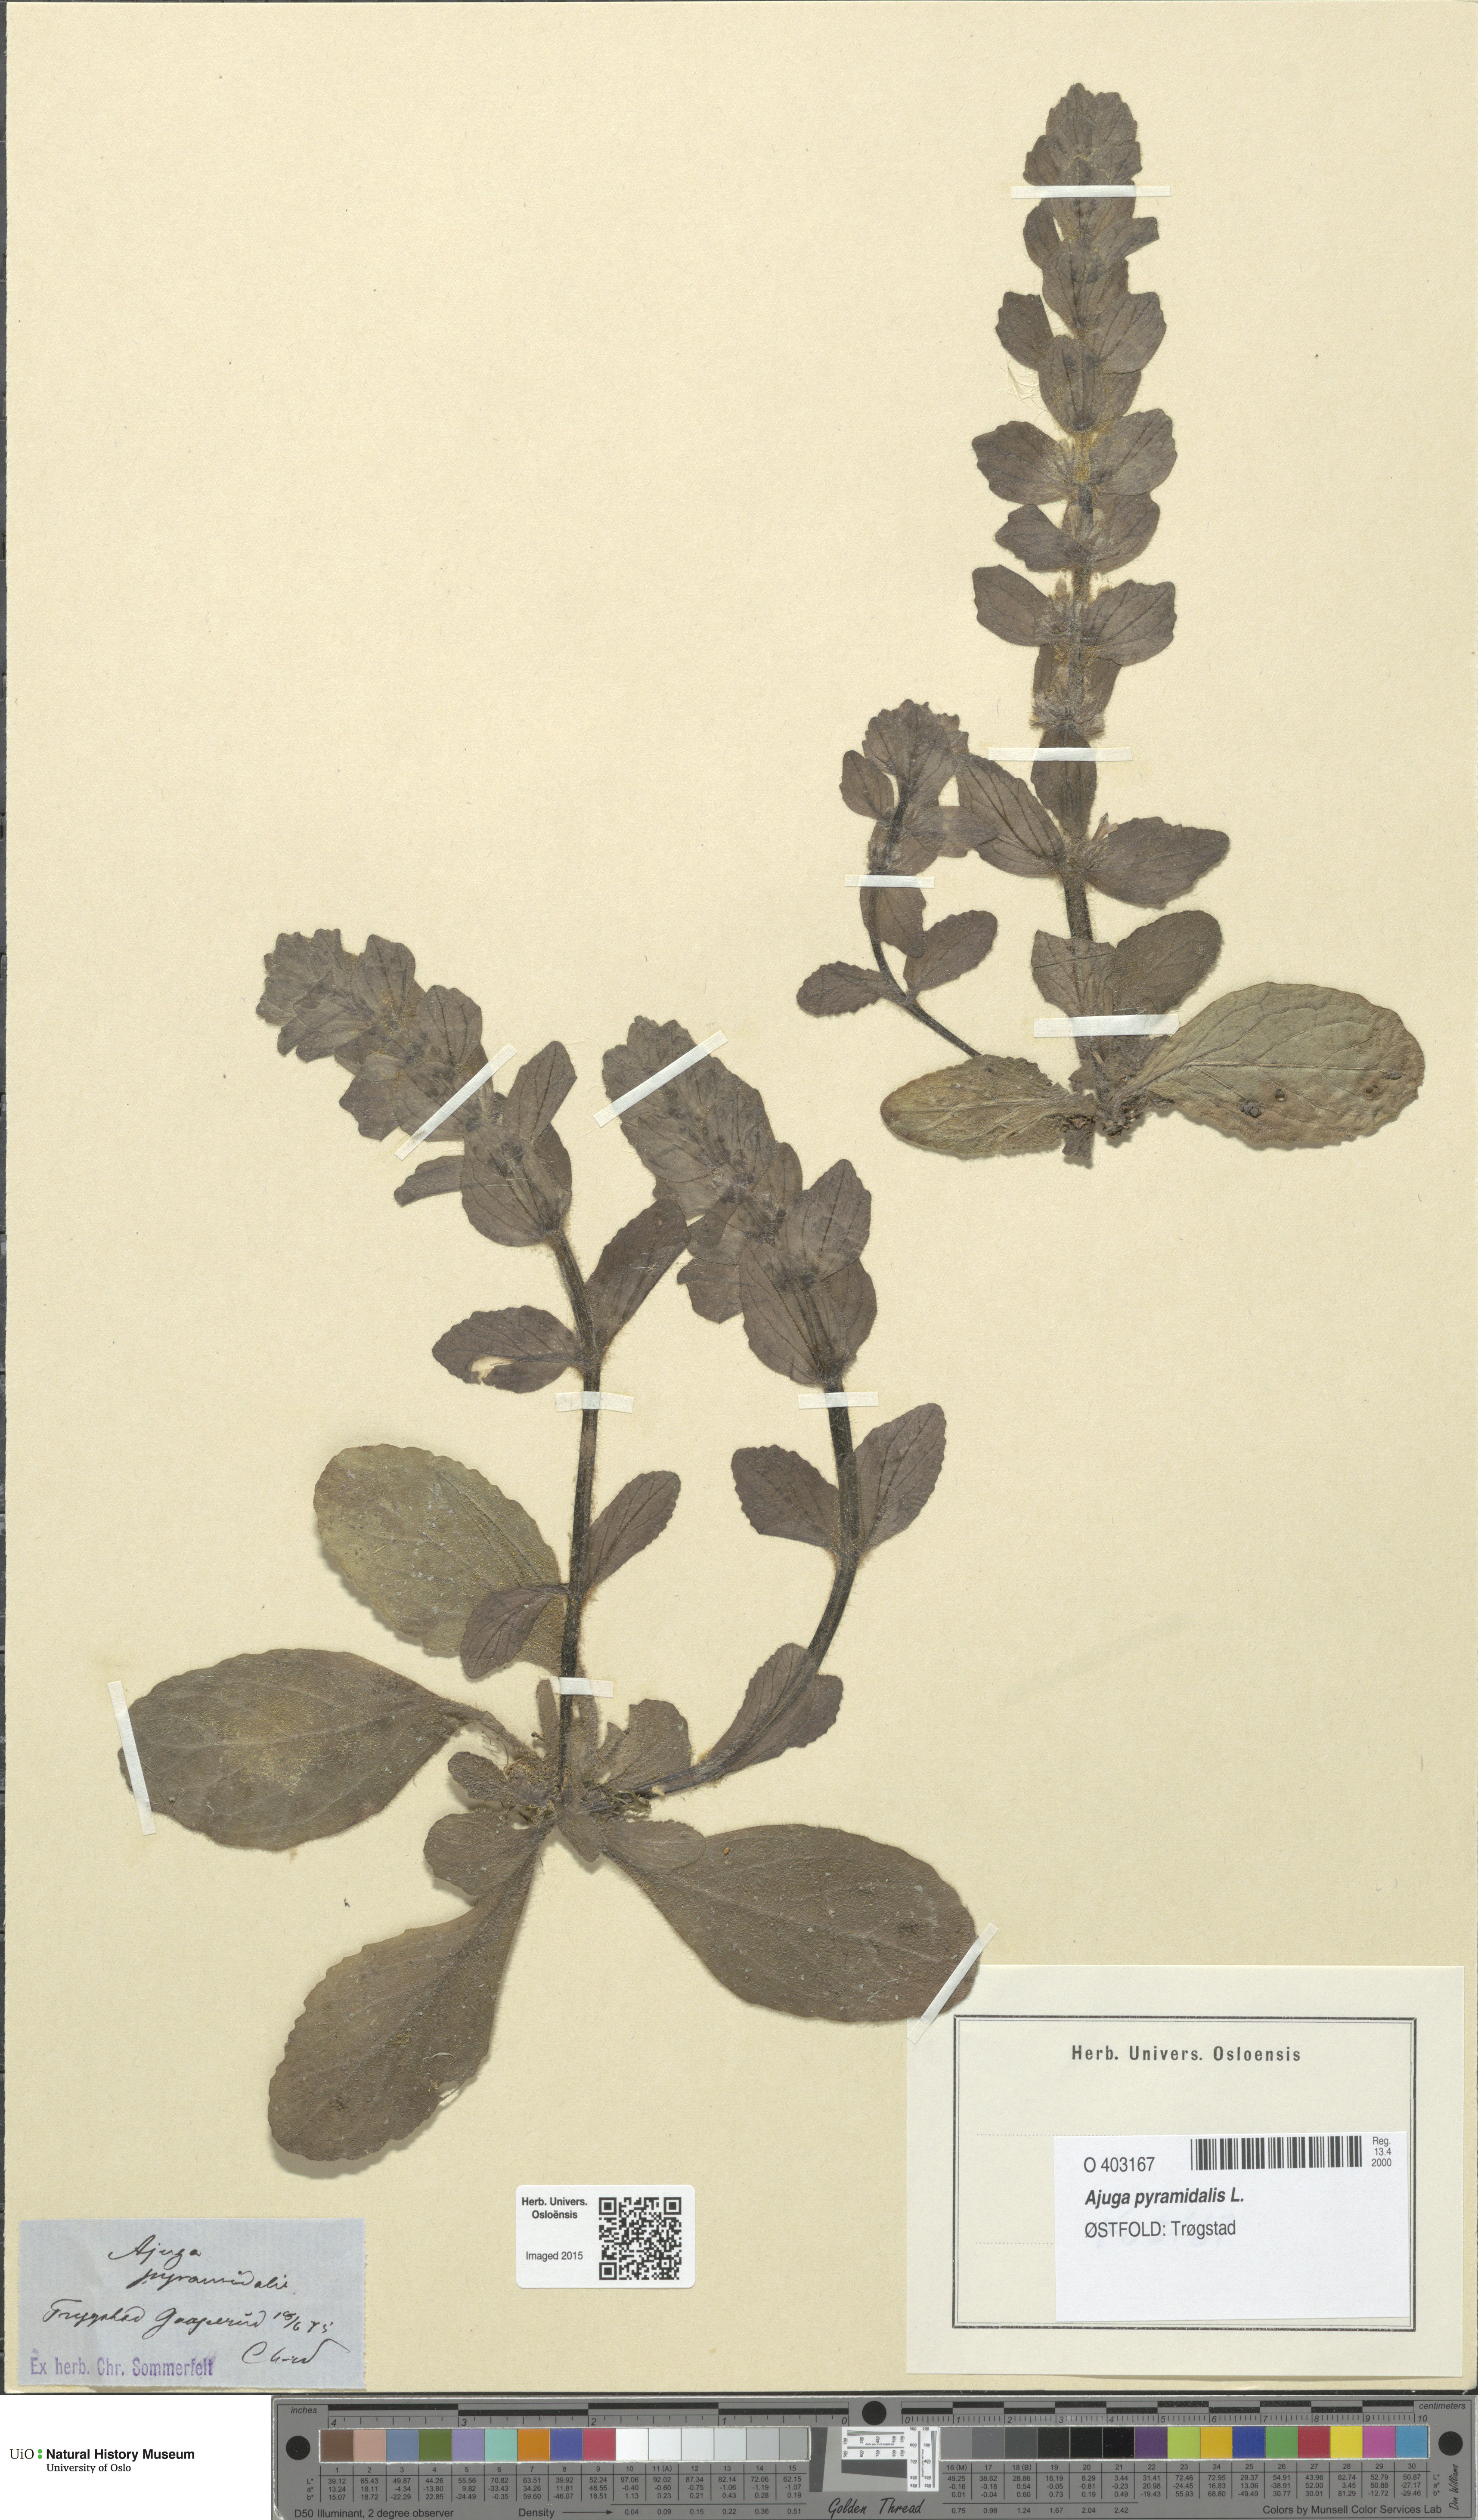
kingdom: Plantae
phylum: Tracheophyta
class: Magnoliopsida
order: Lamiales
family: Lamiaceae
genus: Ajuga
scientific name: Ajuga pyramidalis
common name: Pyramid bugle
